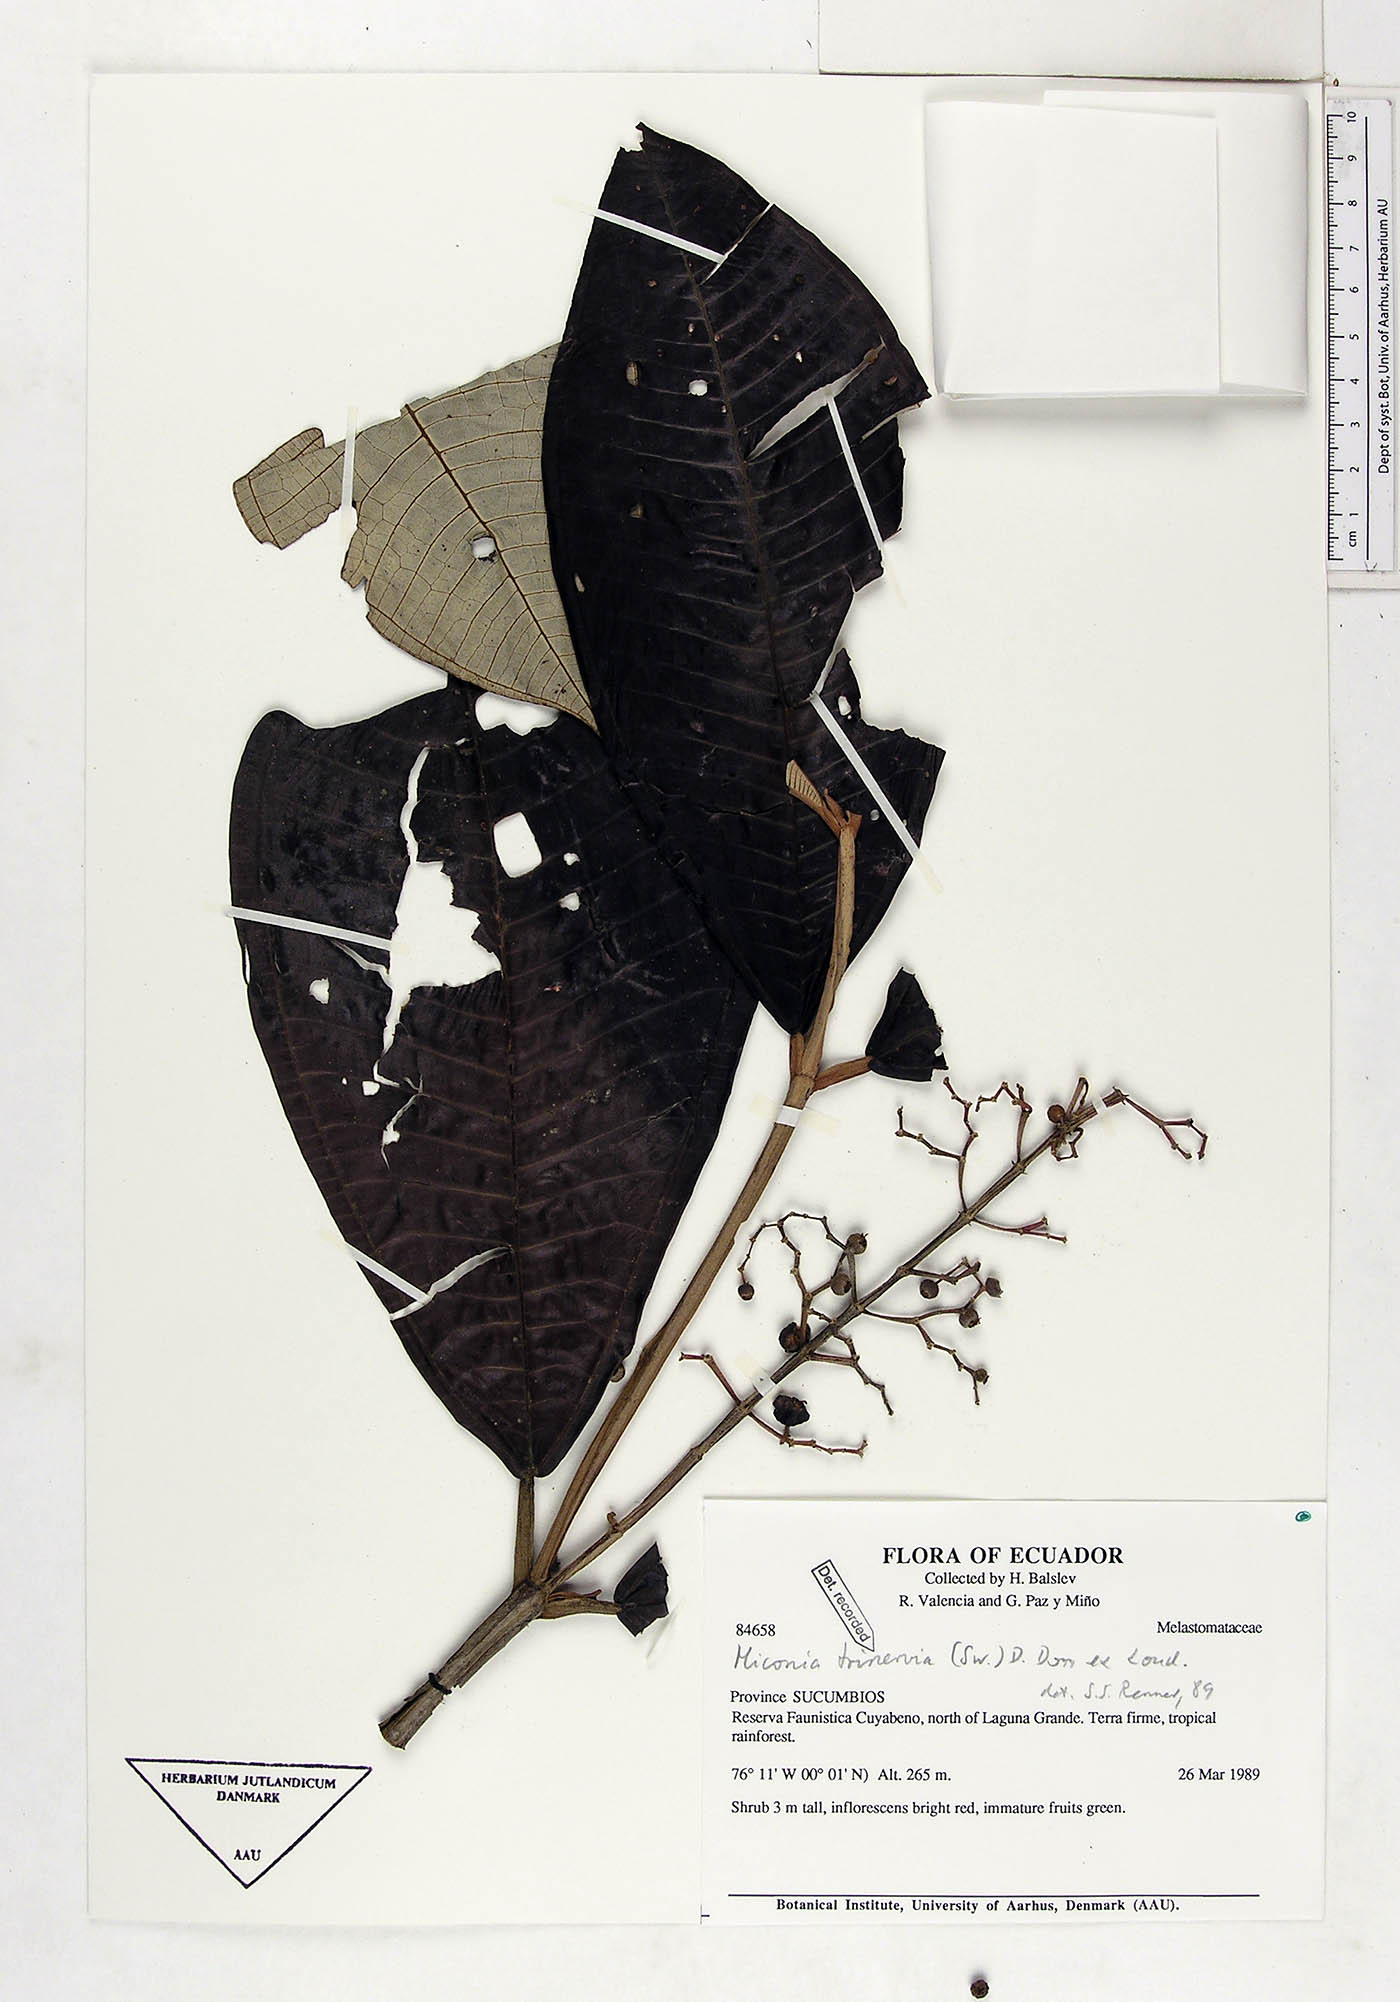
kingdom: Plantae
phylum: Tracheophyta
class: Magnoliopsida
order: Myrtales
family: Melastomataceae
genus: Miconia
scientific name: Miconia trinervia
